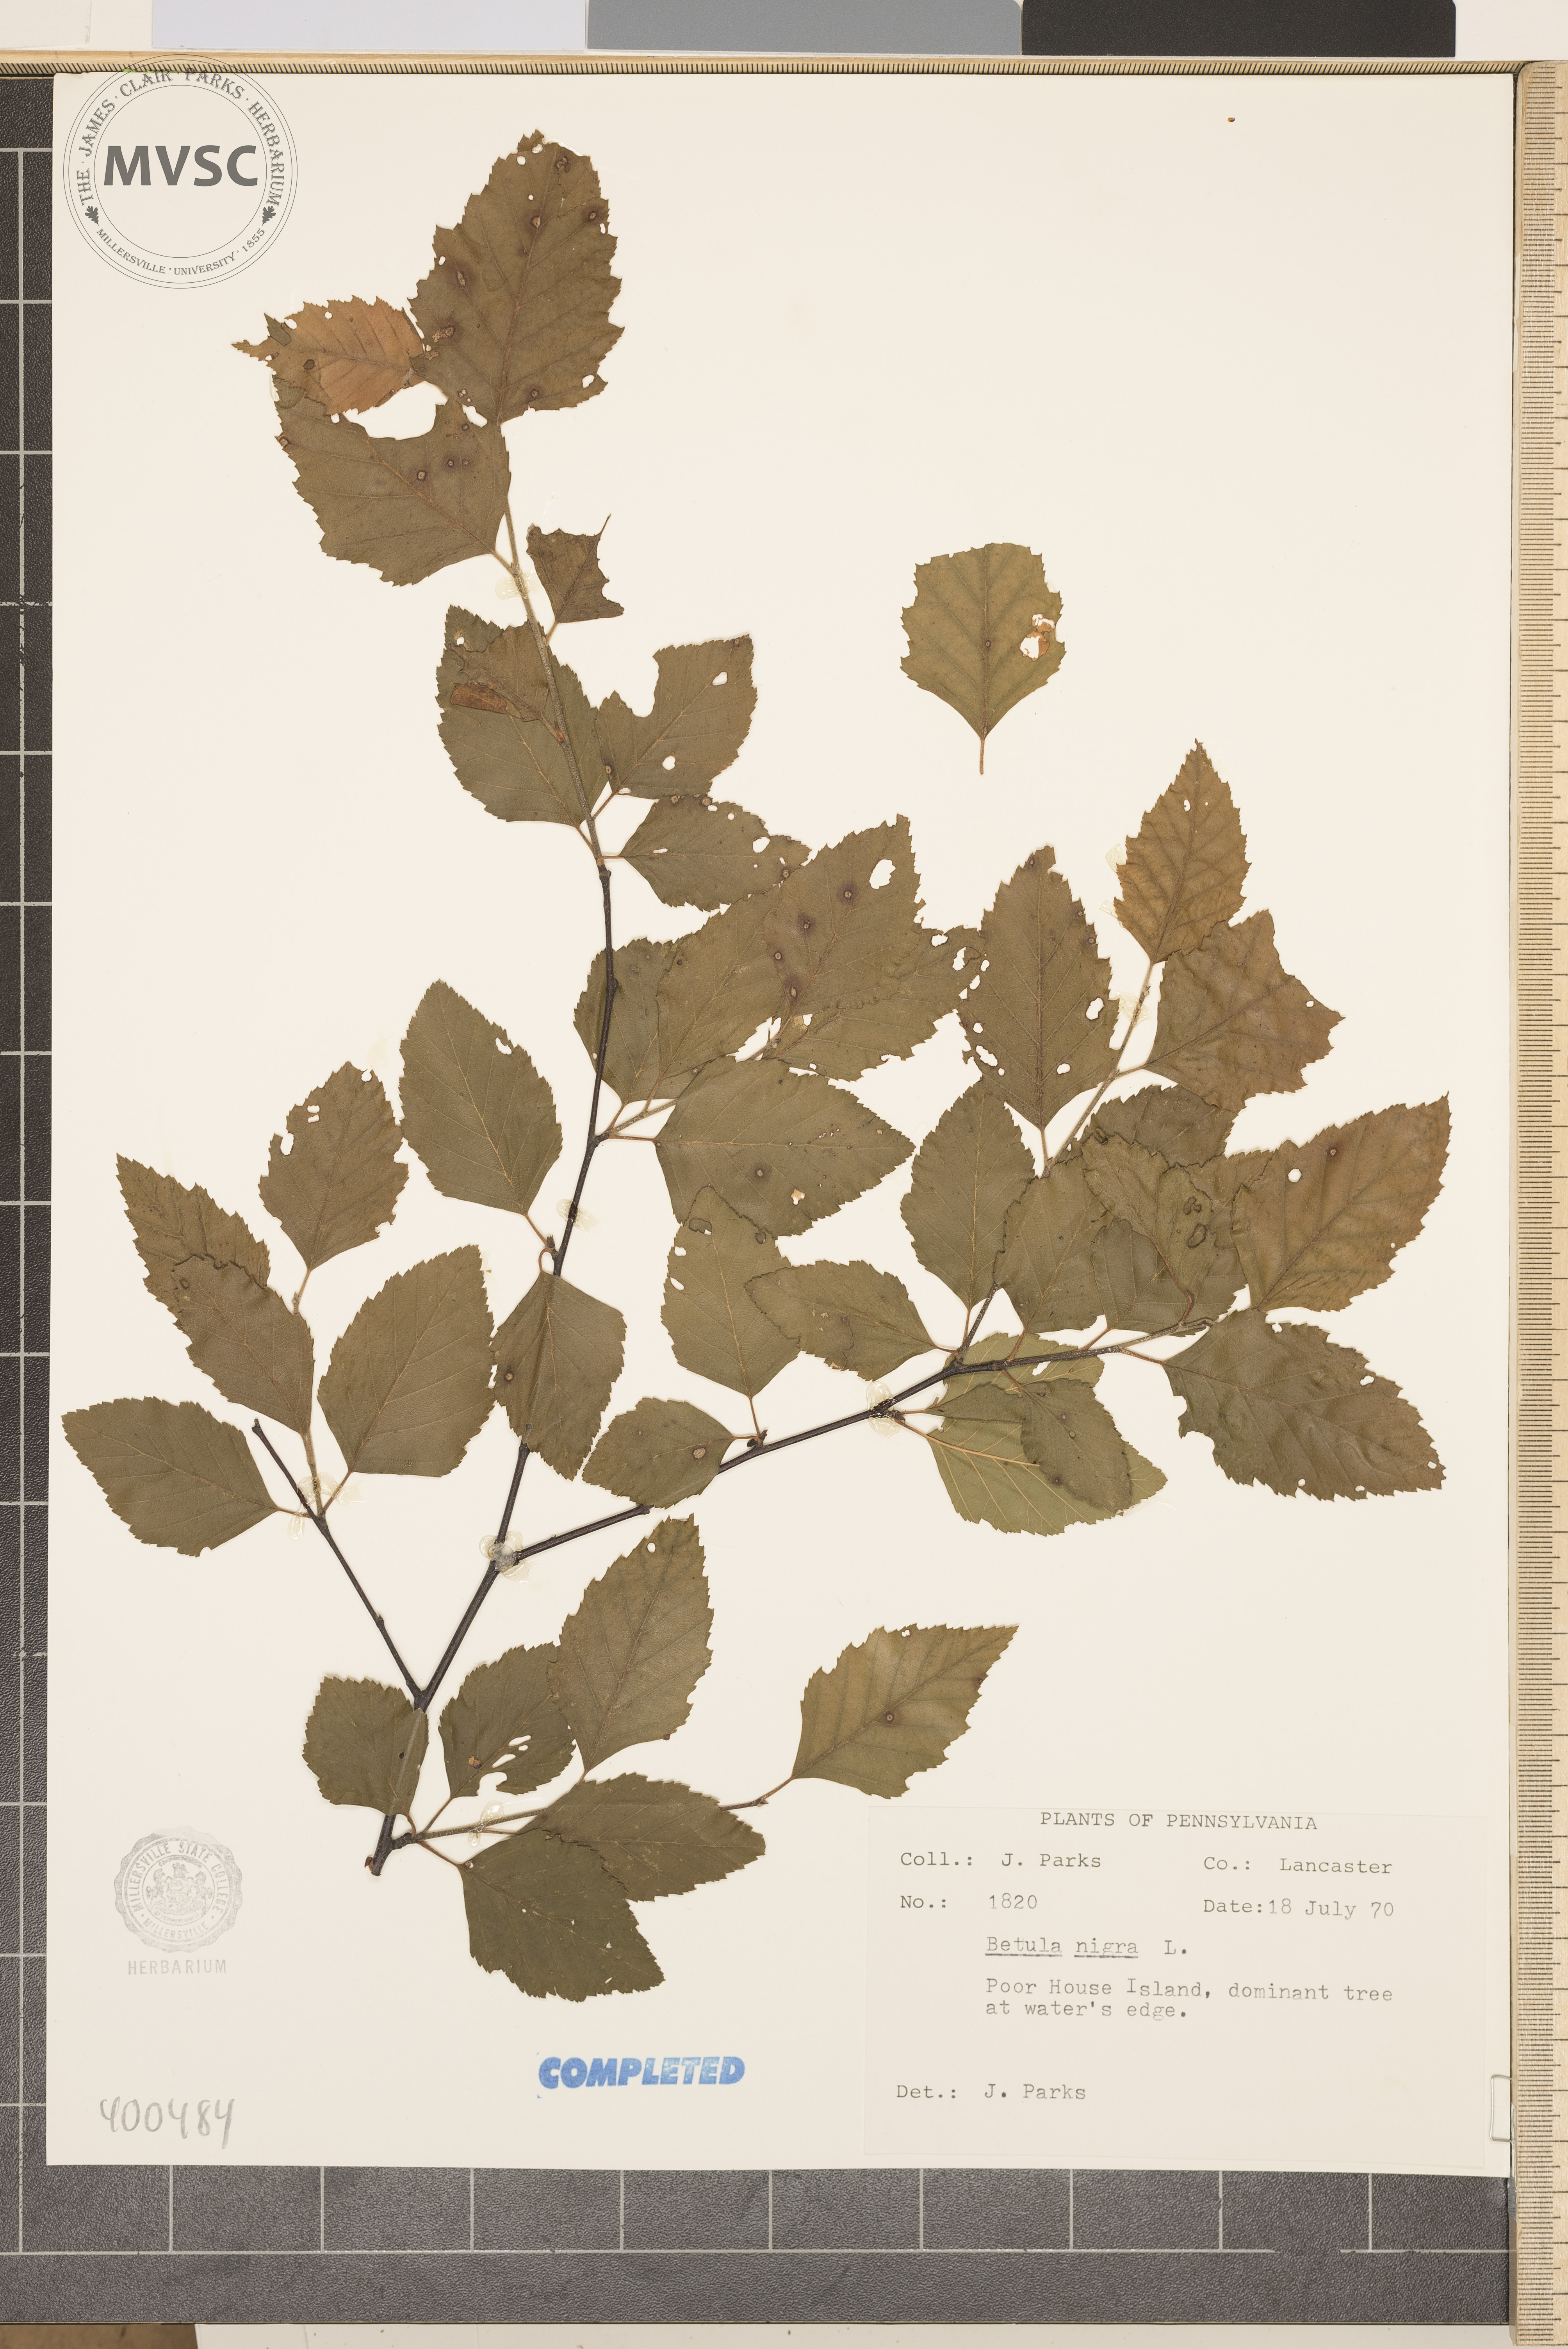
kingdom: Plantae
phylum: Tracheophyta
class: Magnoliopsida
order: Fagales
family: Betulaceae
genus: Betula
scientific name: Betula nigra
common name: river birch
